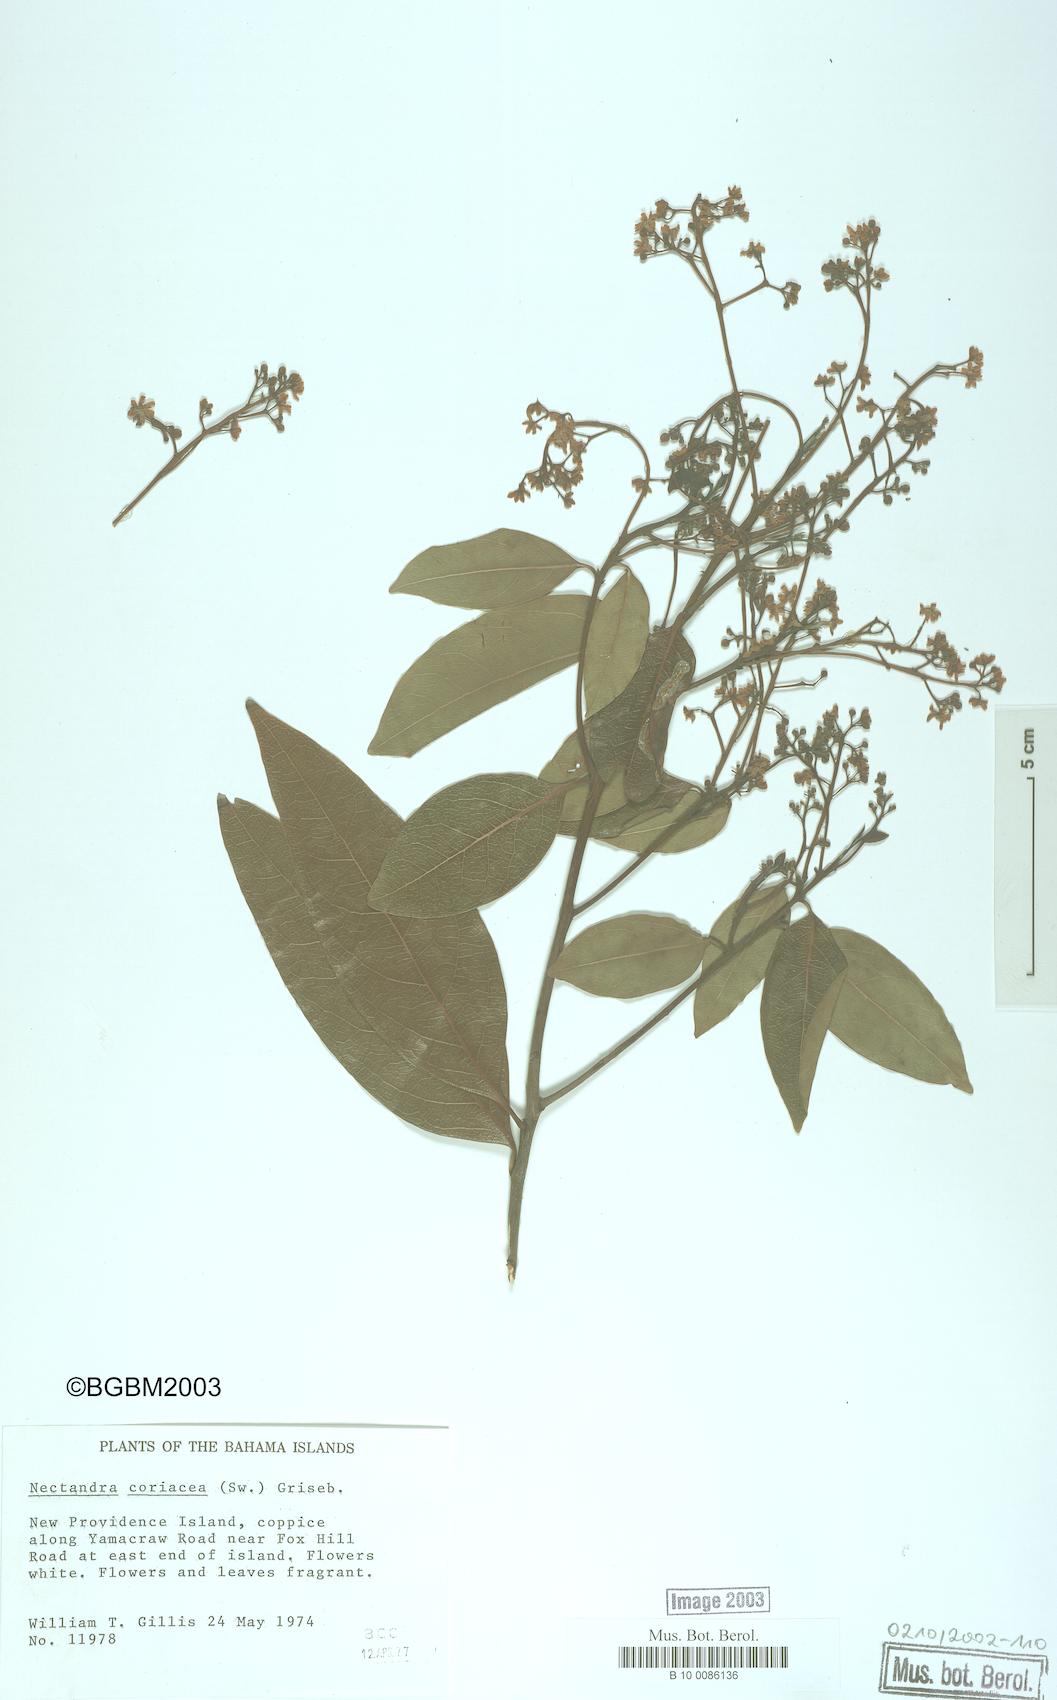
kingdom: Plantae
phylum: Tracheophyta
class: Magnoliopsida
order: Laurales
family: Lauraceae
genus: Damburneya
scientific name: Damburneya
